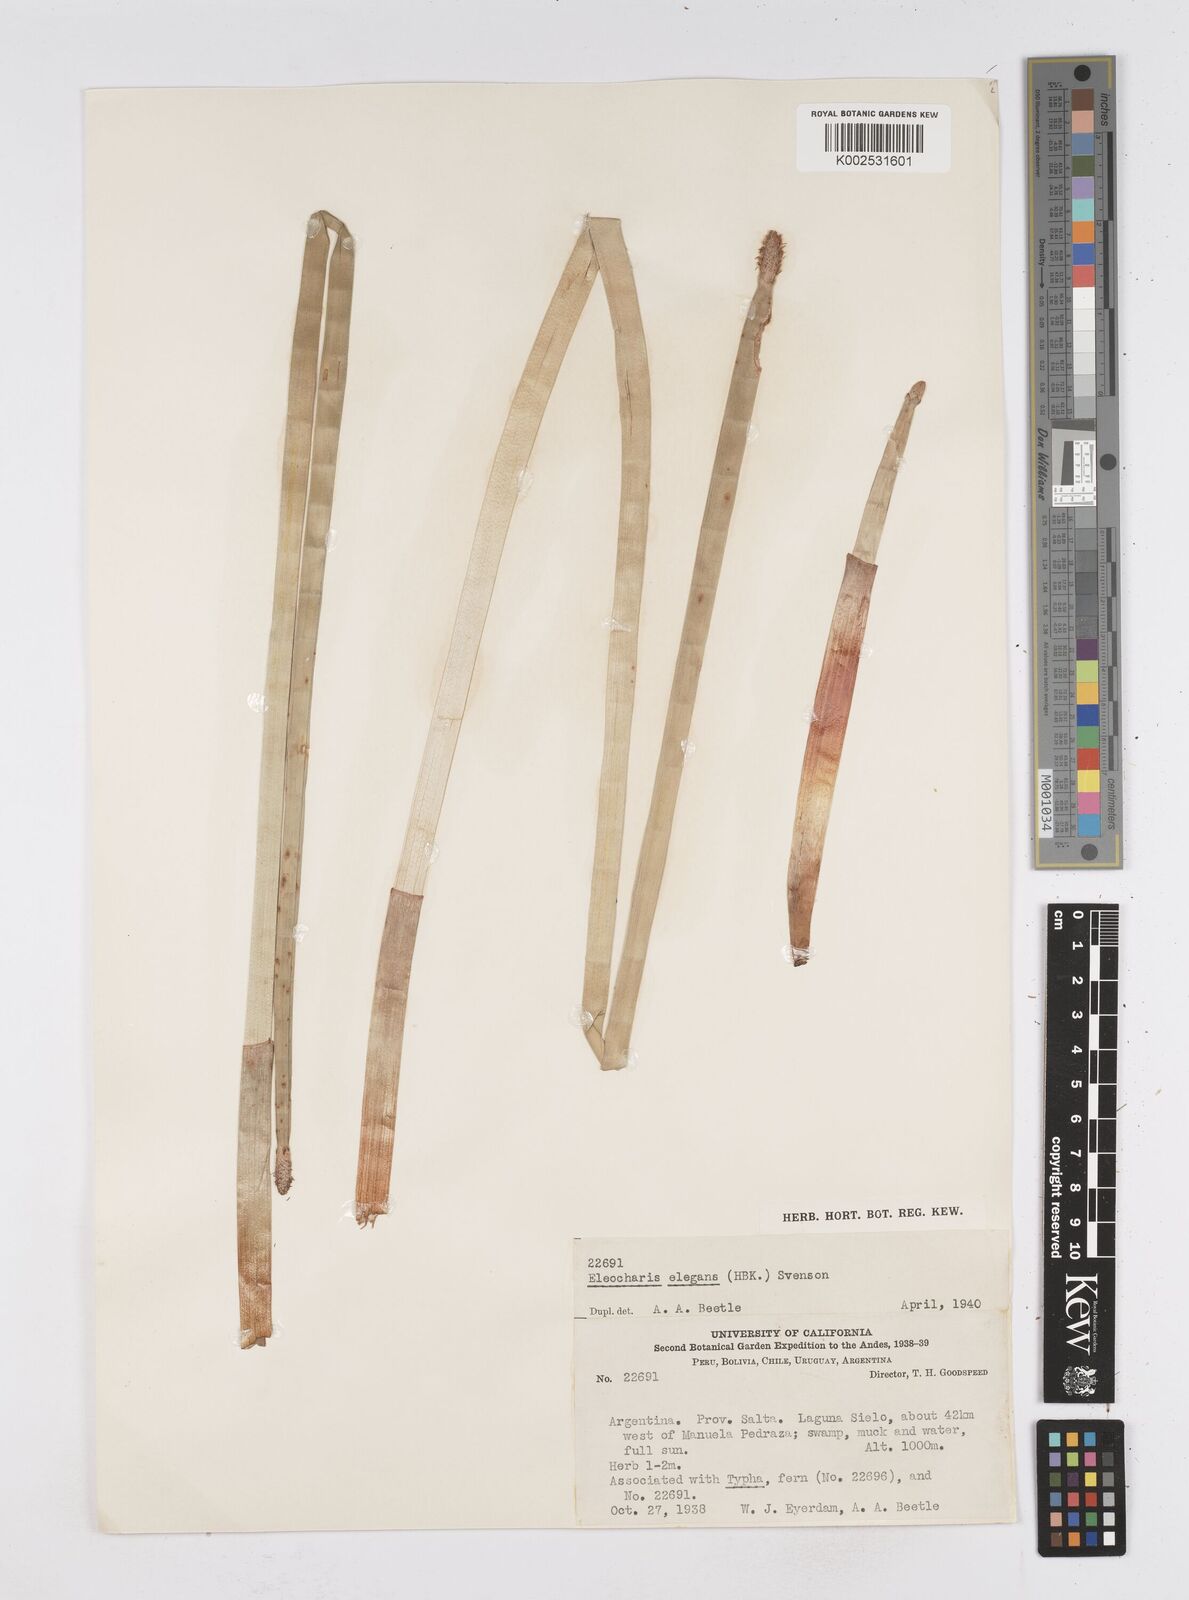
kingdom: Plantae
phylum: Tracheophyta
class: Liliopsida
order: Poales
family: Cyperaceae
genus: Eleocharis
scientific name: Eleocharis elegans
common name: Elegant spike-rush
